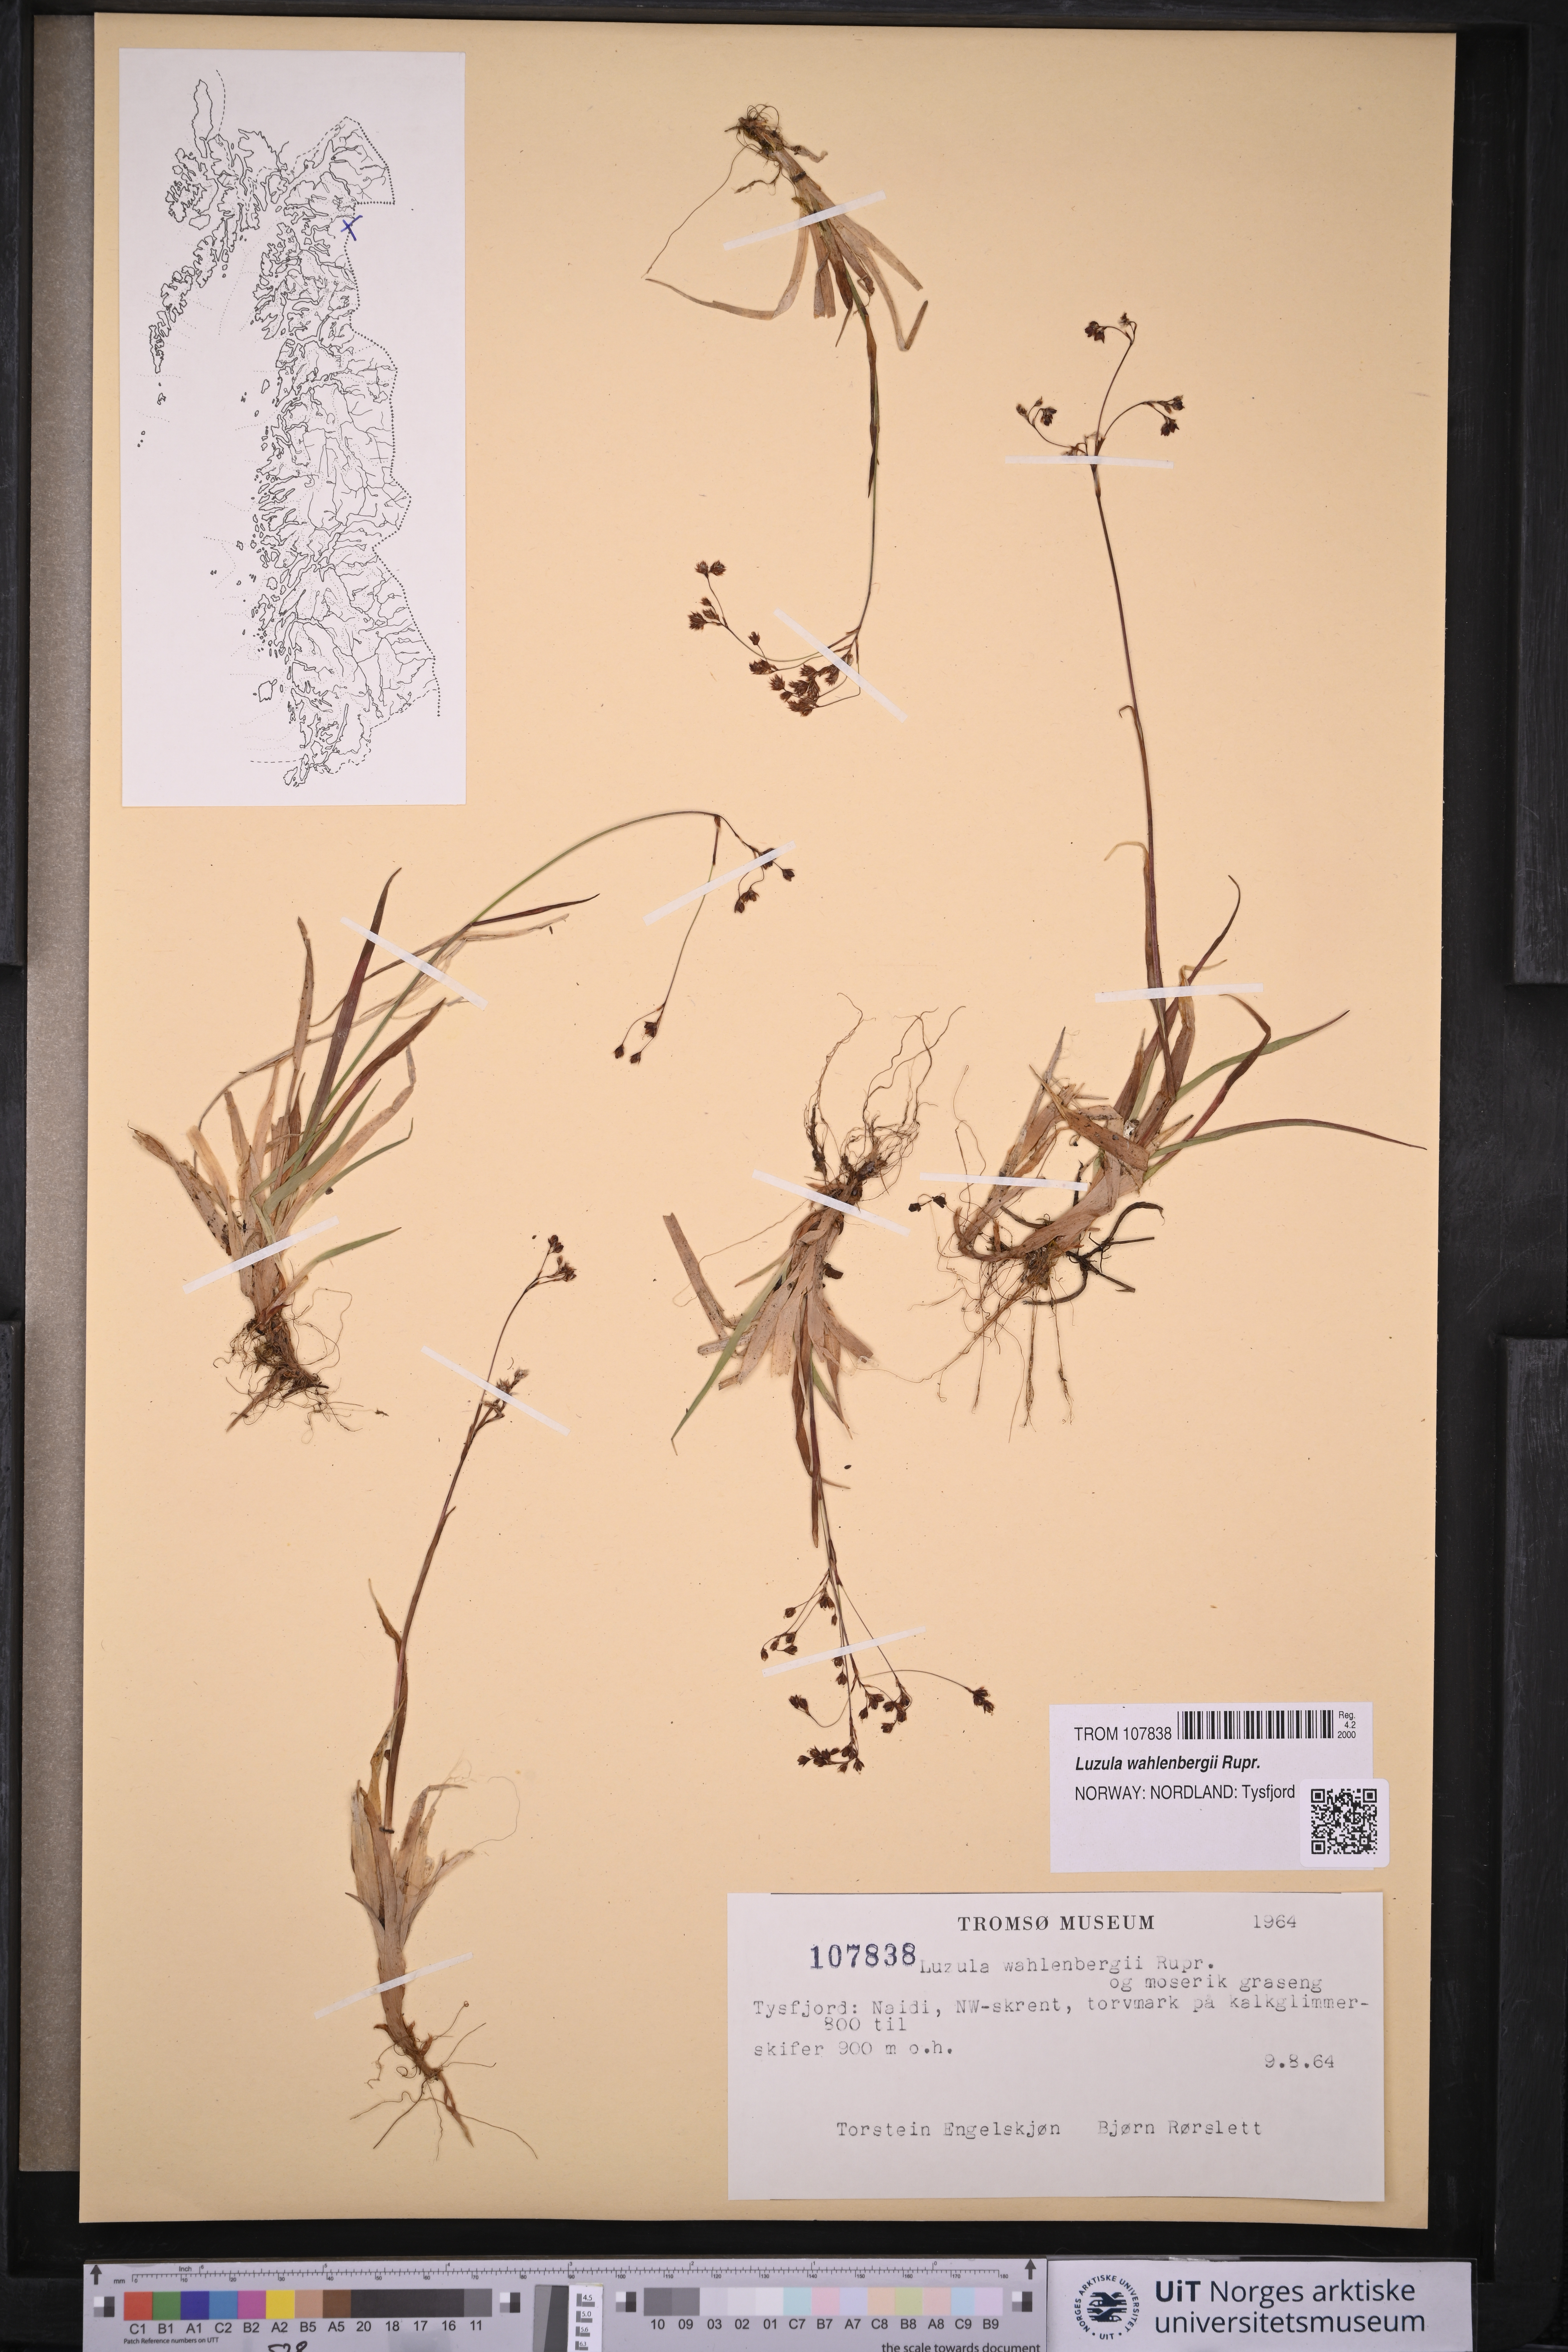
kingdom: Plantae
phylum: Tracheophyta
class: Liliopsida
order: Poales
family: Juncaceae
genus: Luzula
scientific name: Luzula wahlenbergii
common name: Wahlenberg's wood-rush
